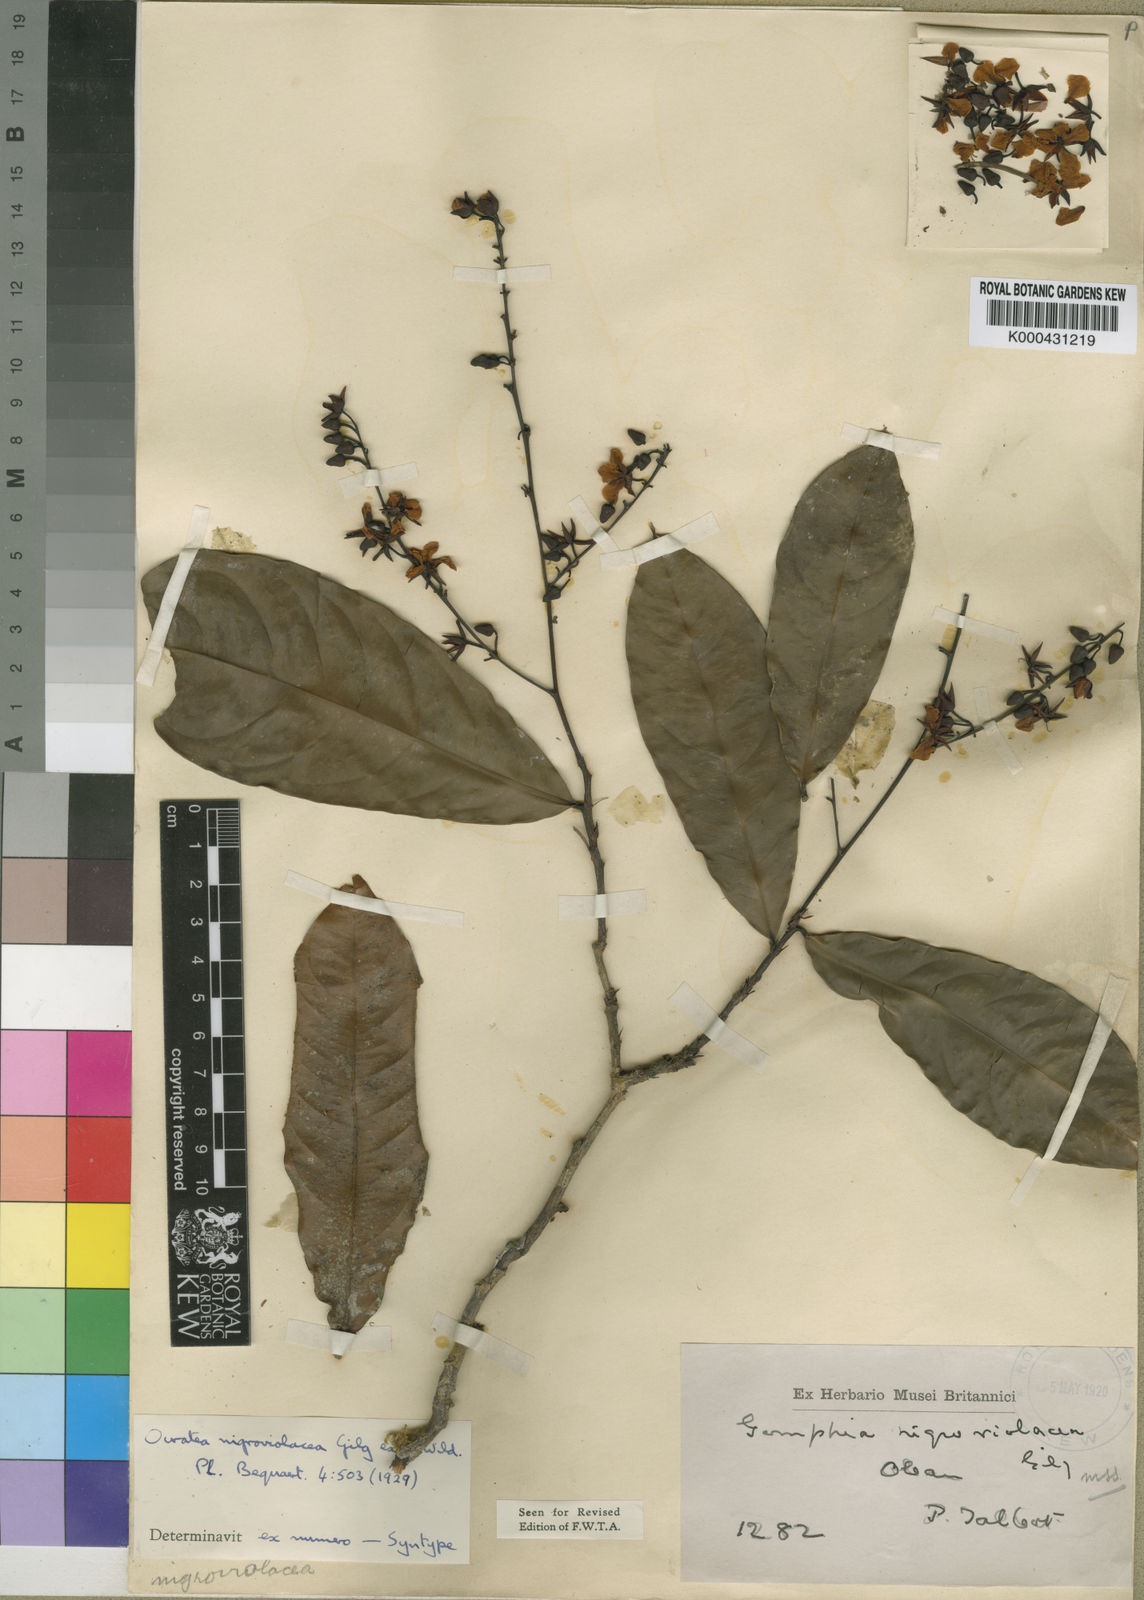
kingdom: Plantae
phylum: Tracheophyta
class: Magnoliopsida
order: Malpighiales
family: Ochnaceae
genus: Campylospermum
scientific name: Campylospermum calanthum
